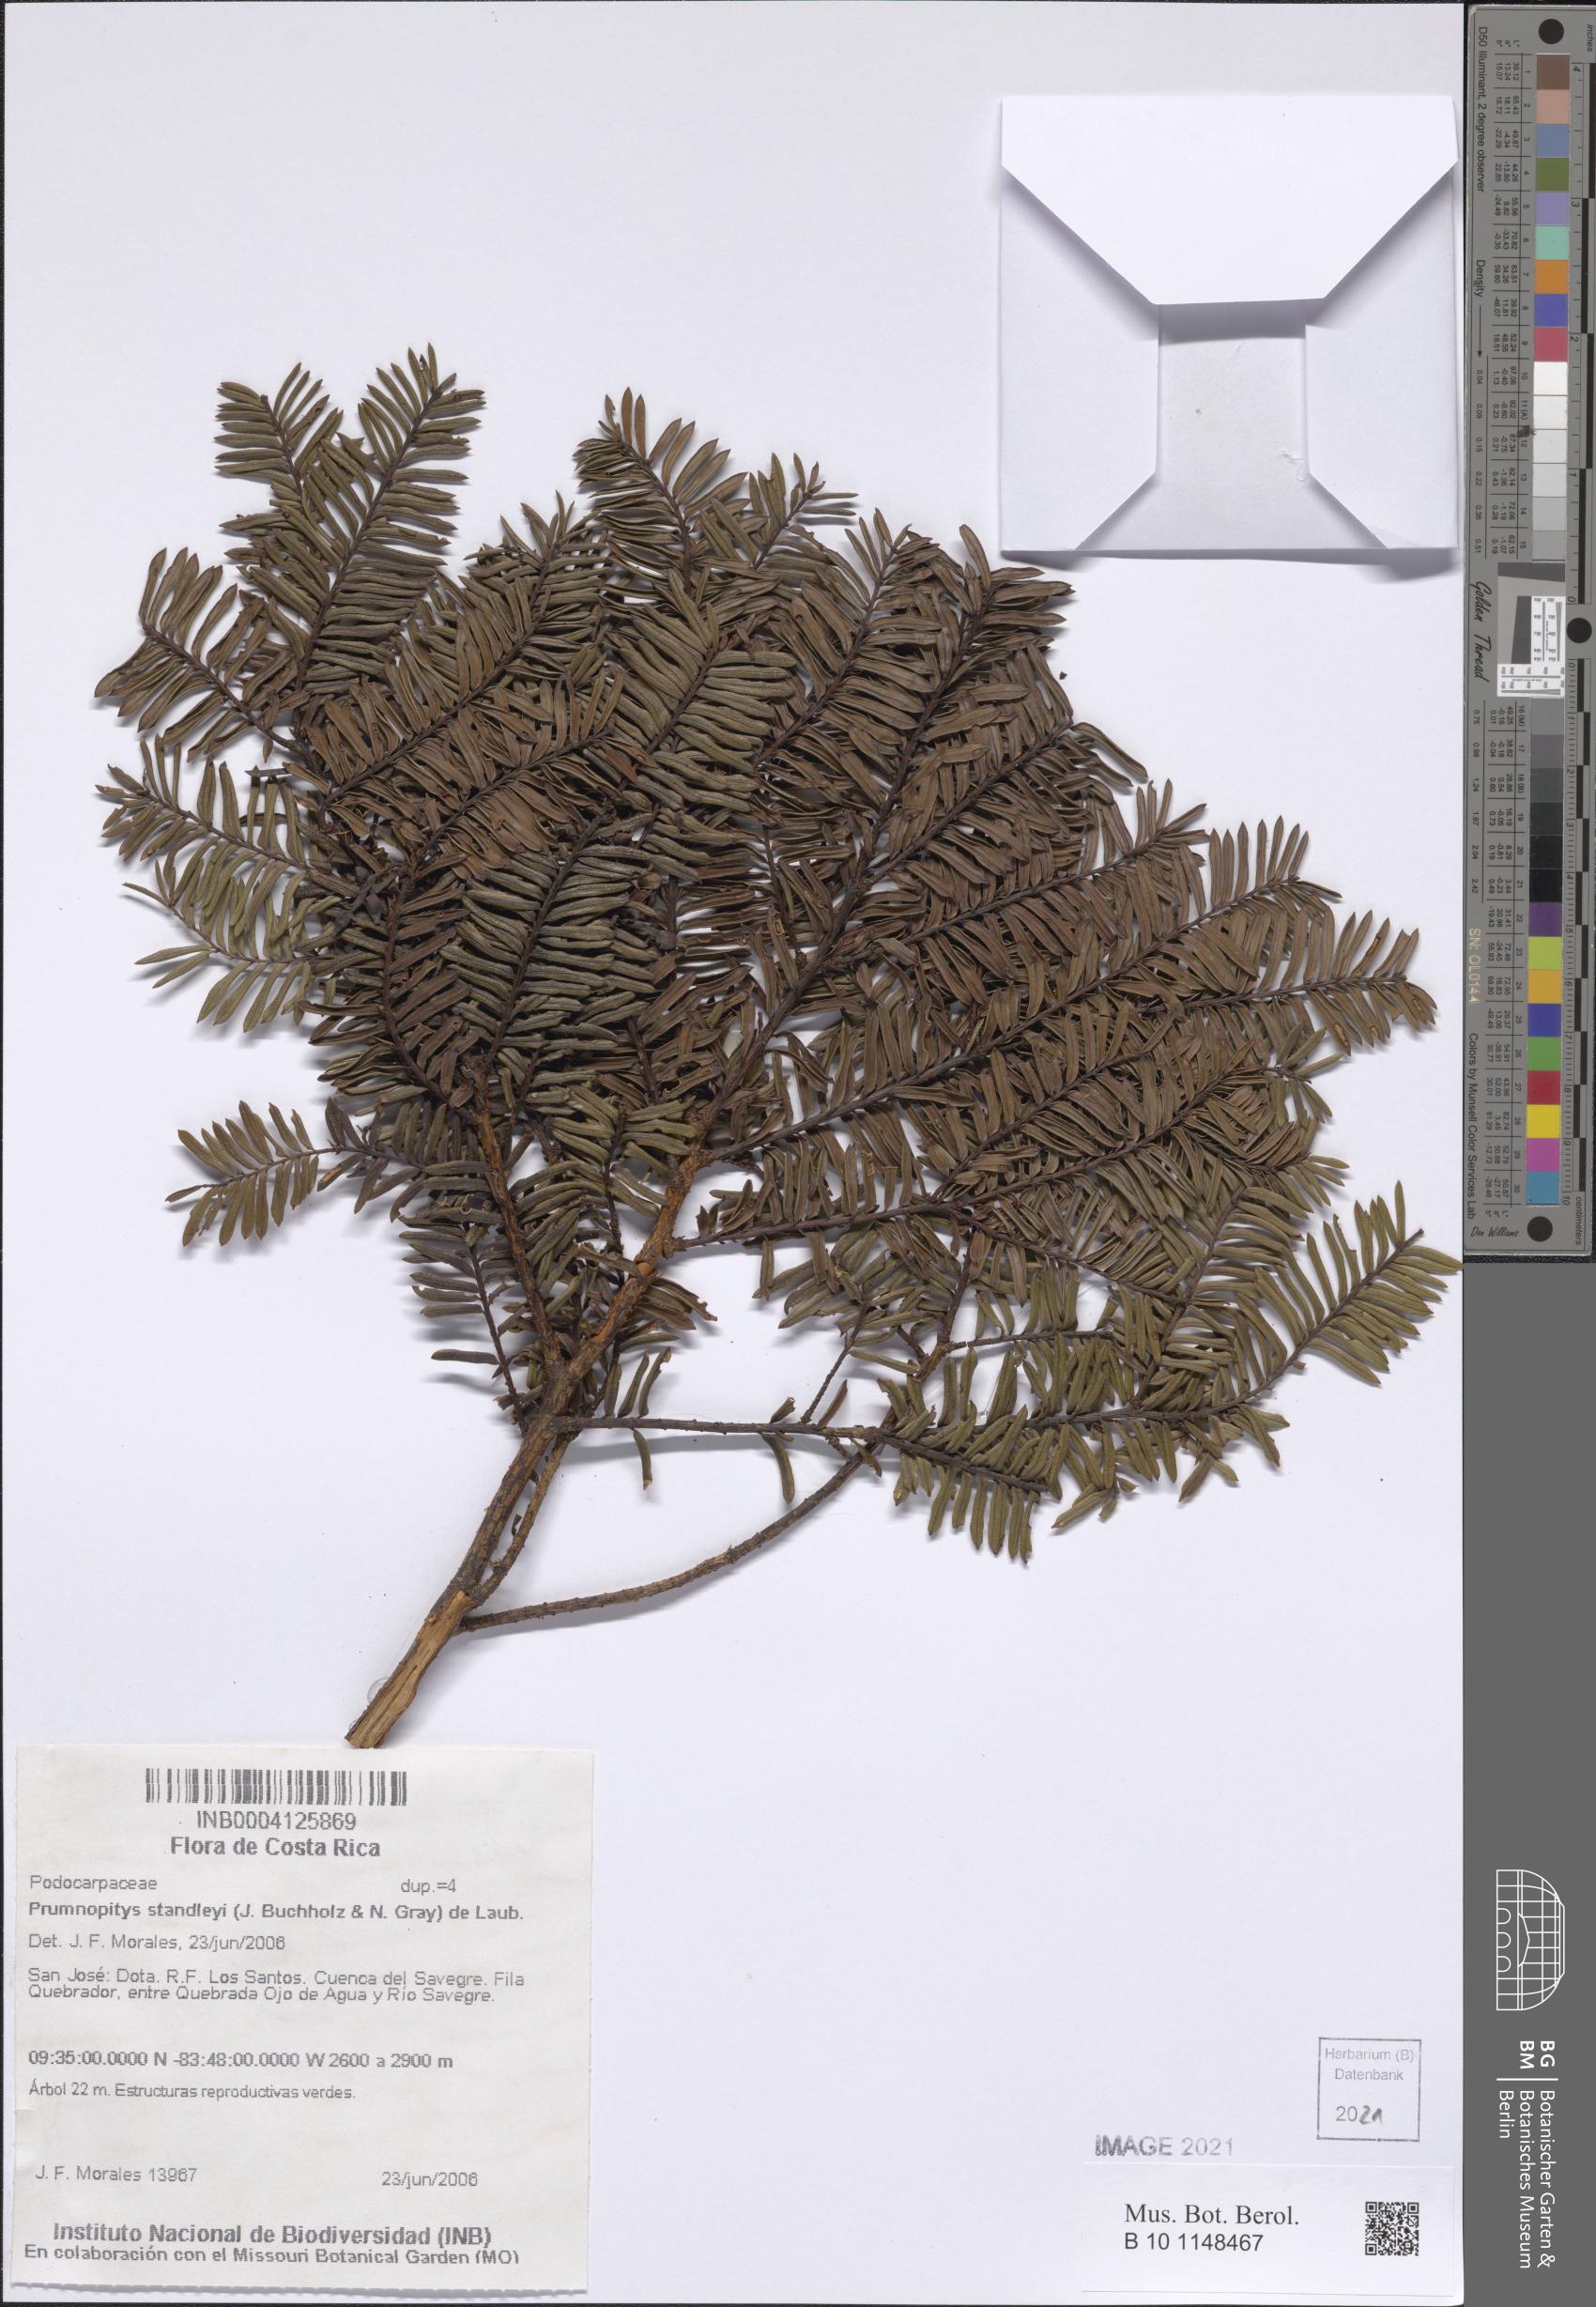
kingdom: Plantae
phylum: Tracheophyta
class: Pinopsida
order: Pinales
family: Podocarpaceae
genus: Prumnopitys
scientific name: Prumnopitys standleyi
